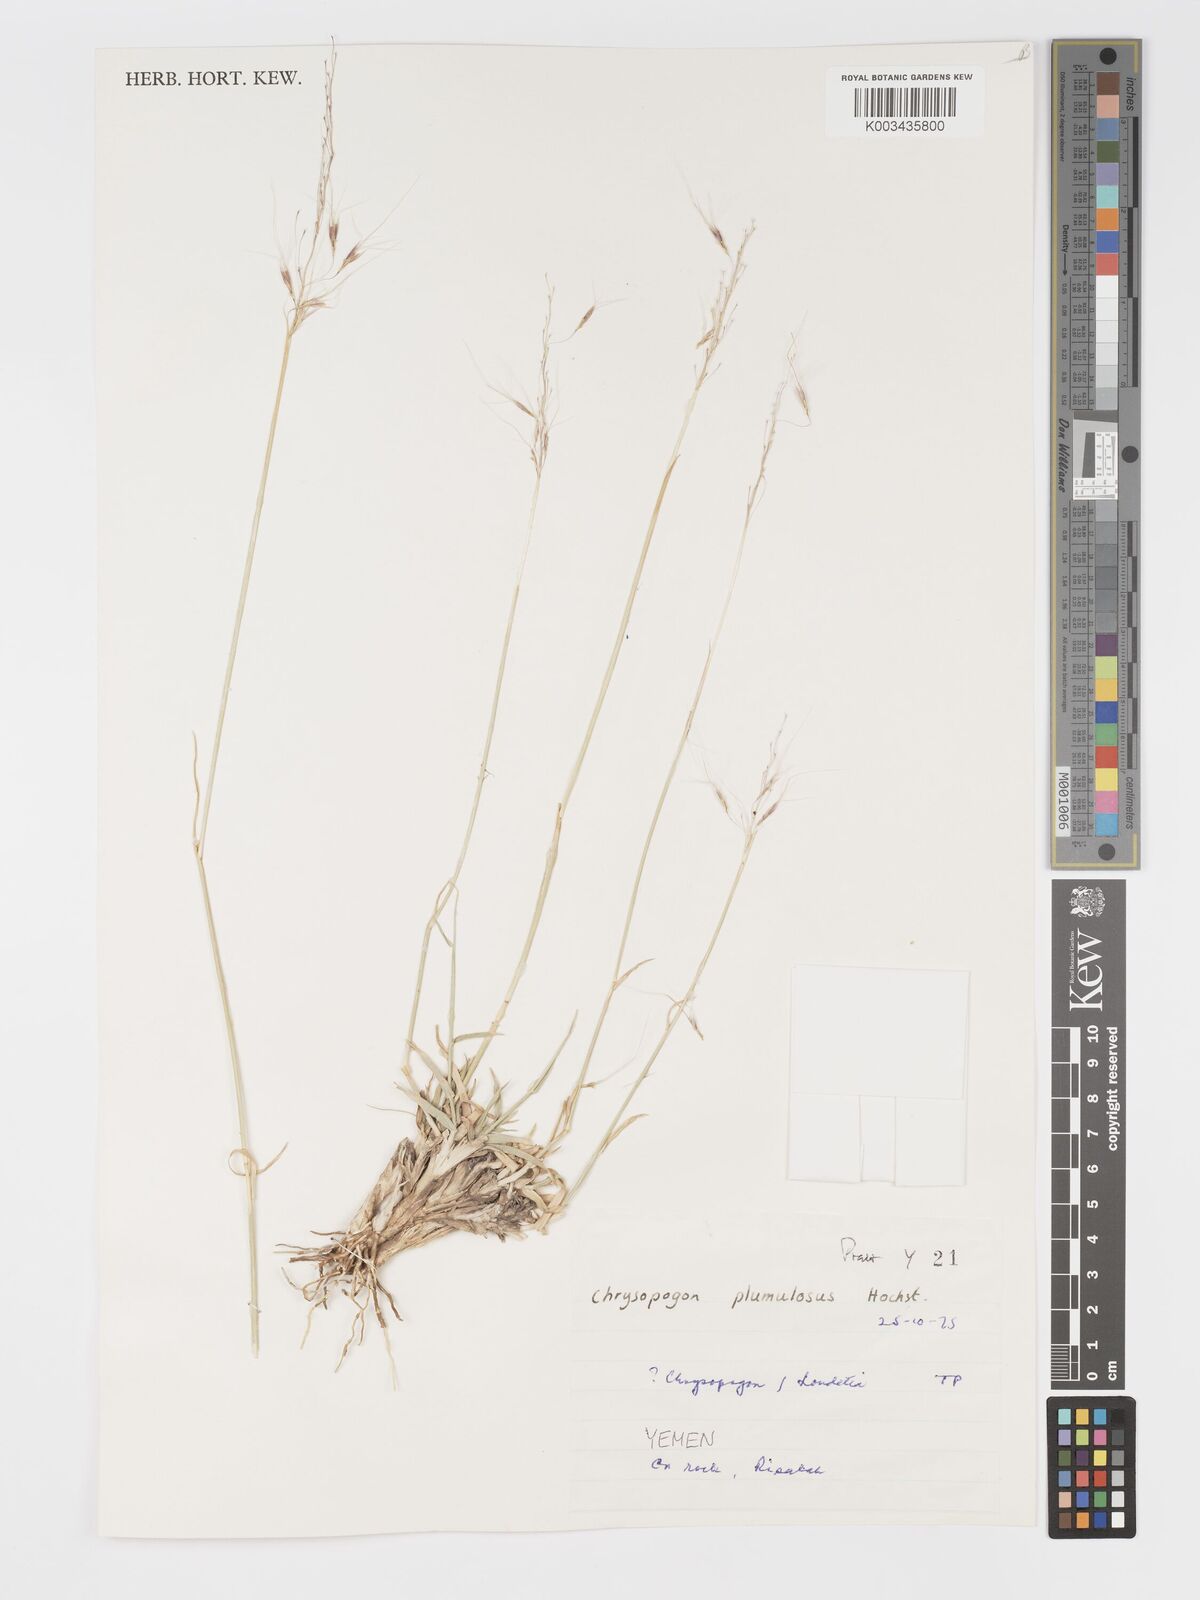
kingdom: Plantae
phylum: Tracheophyta
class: Liliopsida
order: Poales
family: Poaceae
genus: Chrysopogon
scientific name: Chrysopogon plumulosus
